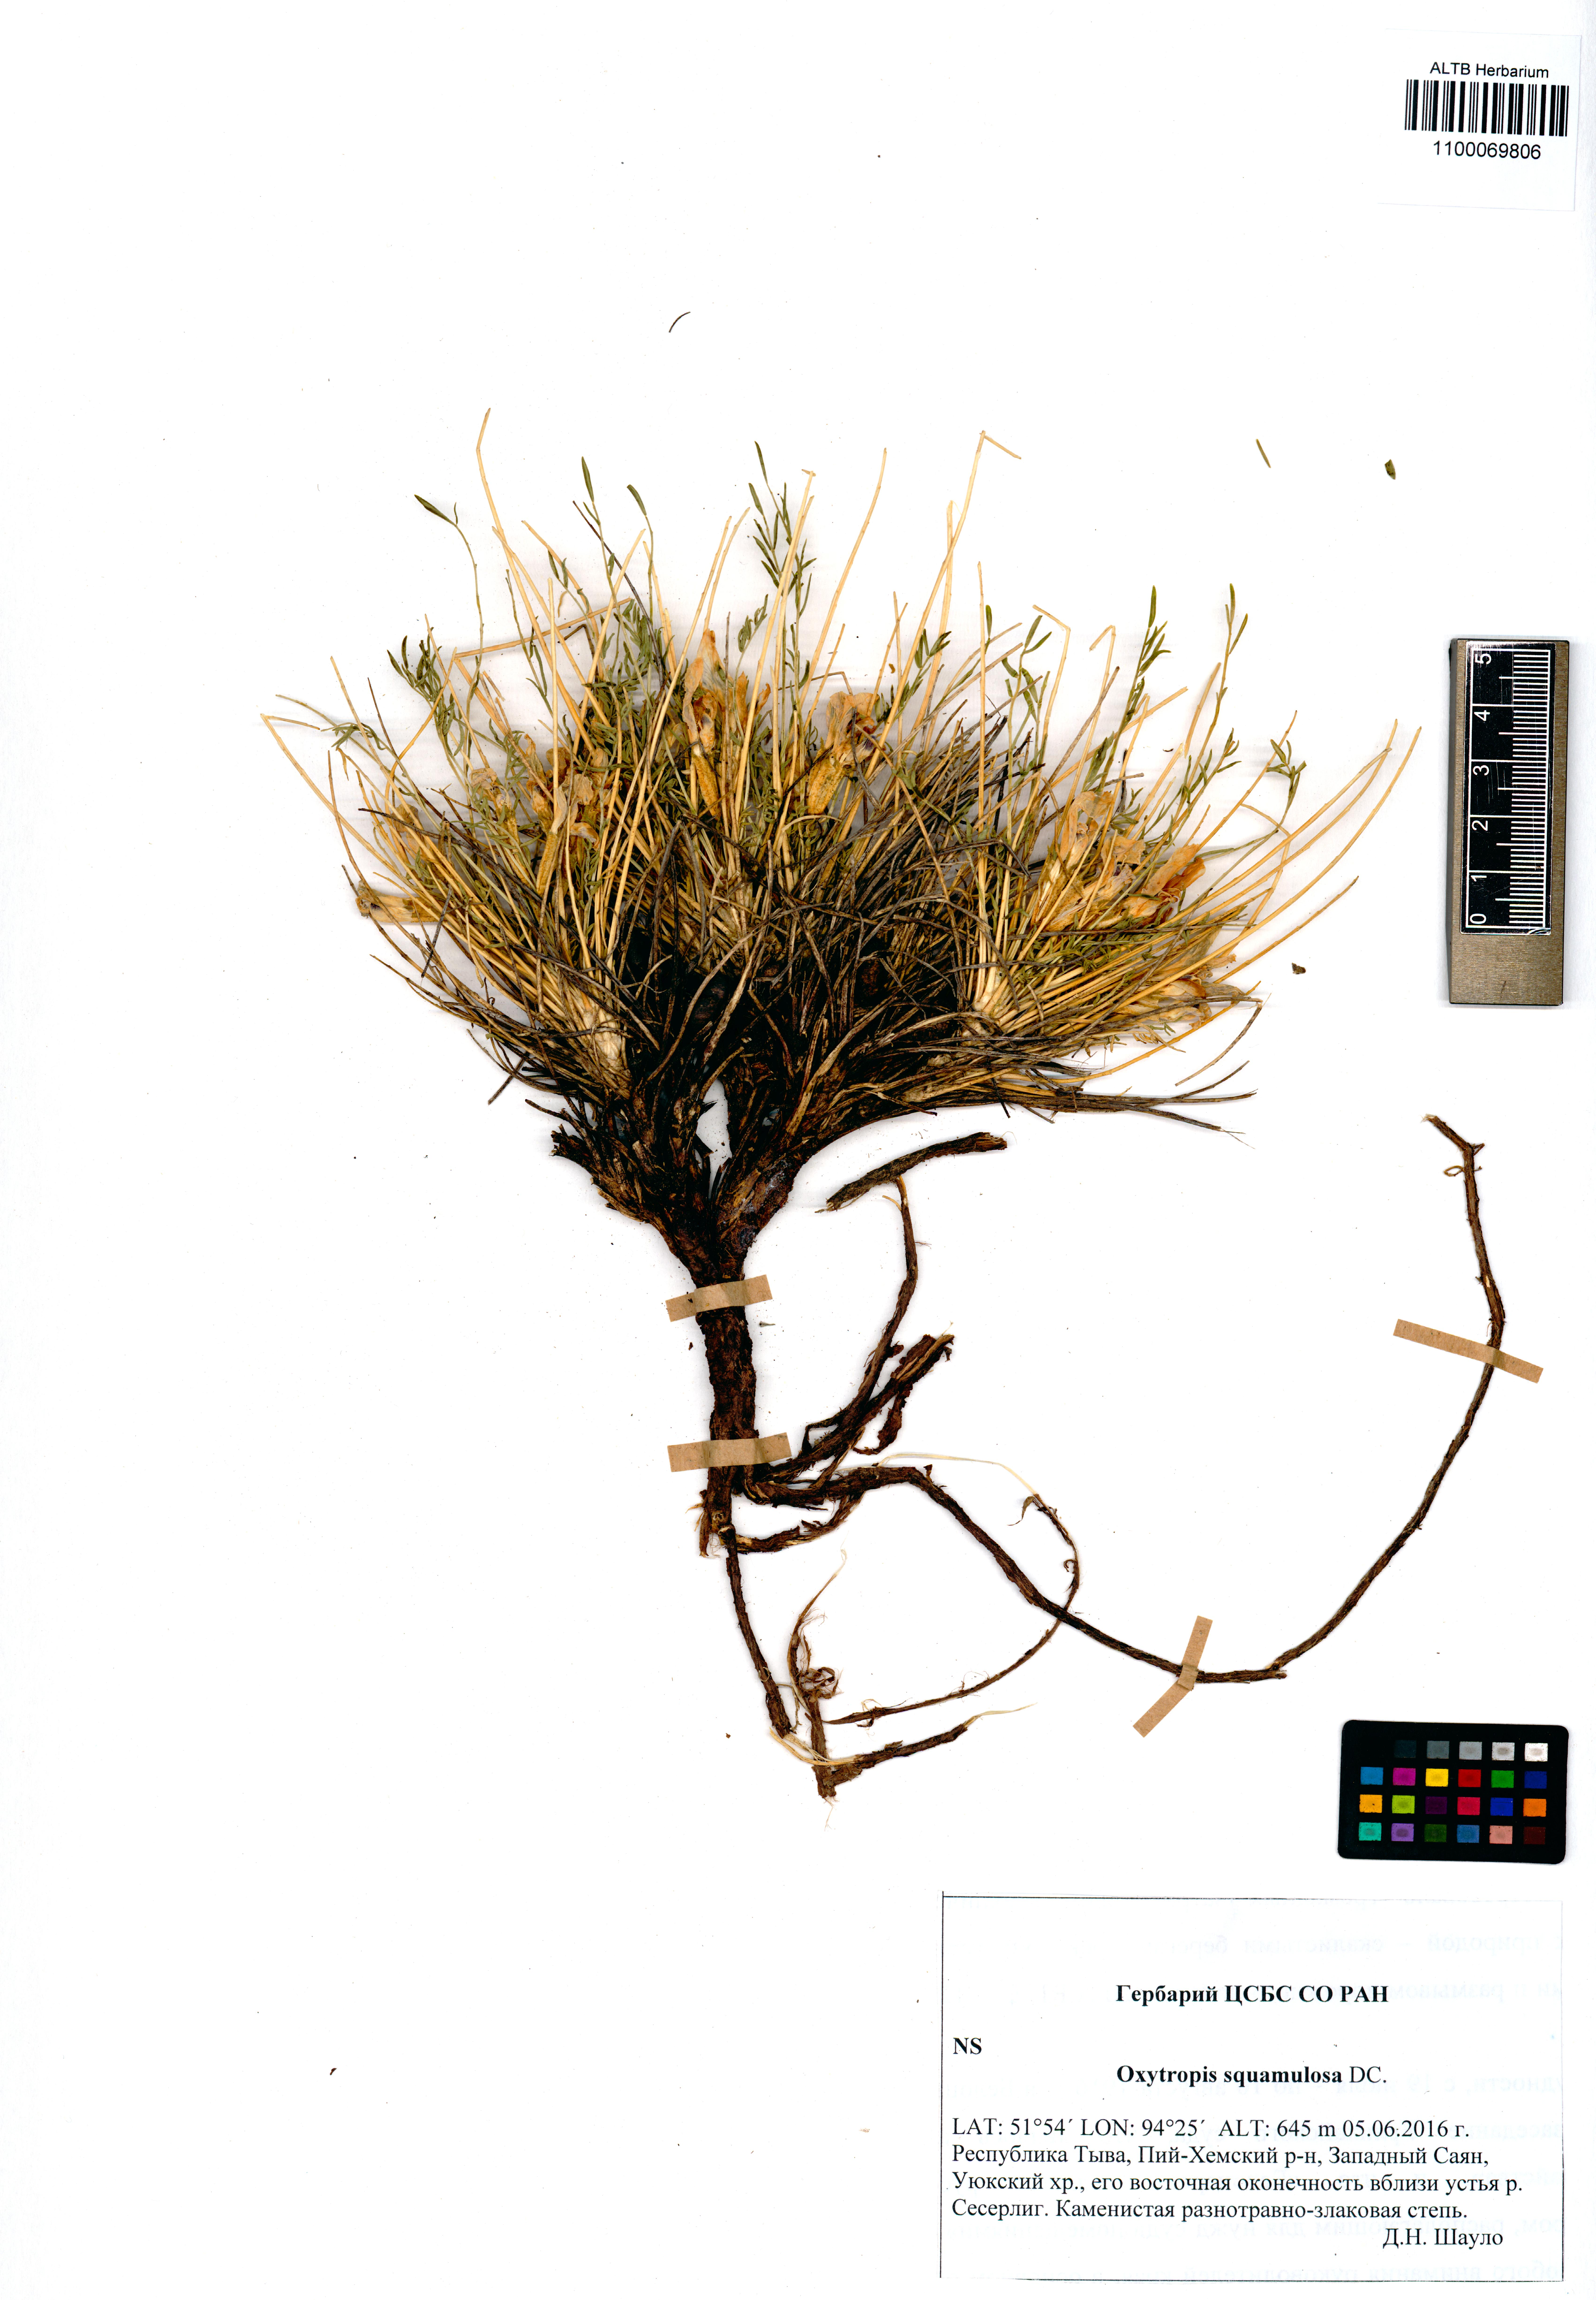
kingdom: Plantae
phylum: Tracheophyta
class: Magnoliopsida
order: Fabales
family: Fabaceae
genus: Oxytropis
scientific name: Oxytropis squammulosa
